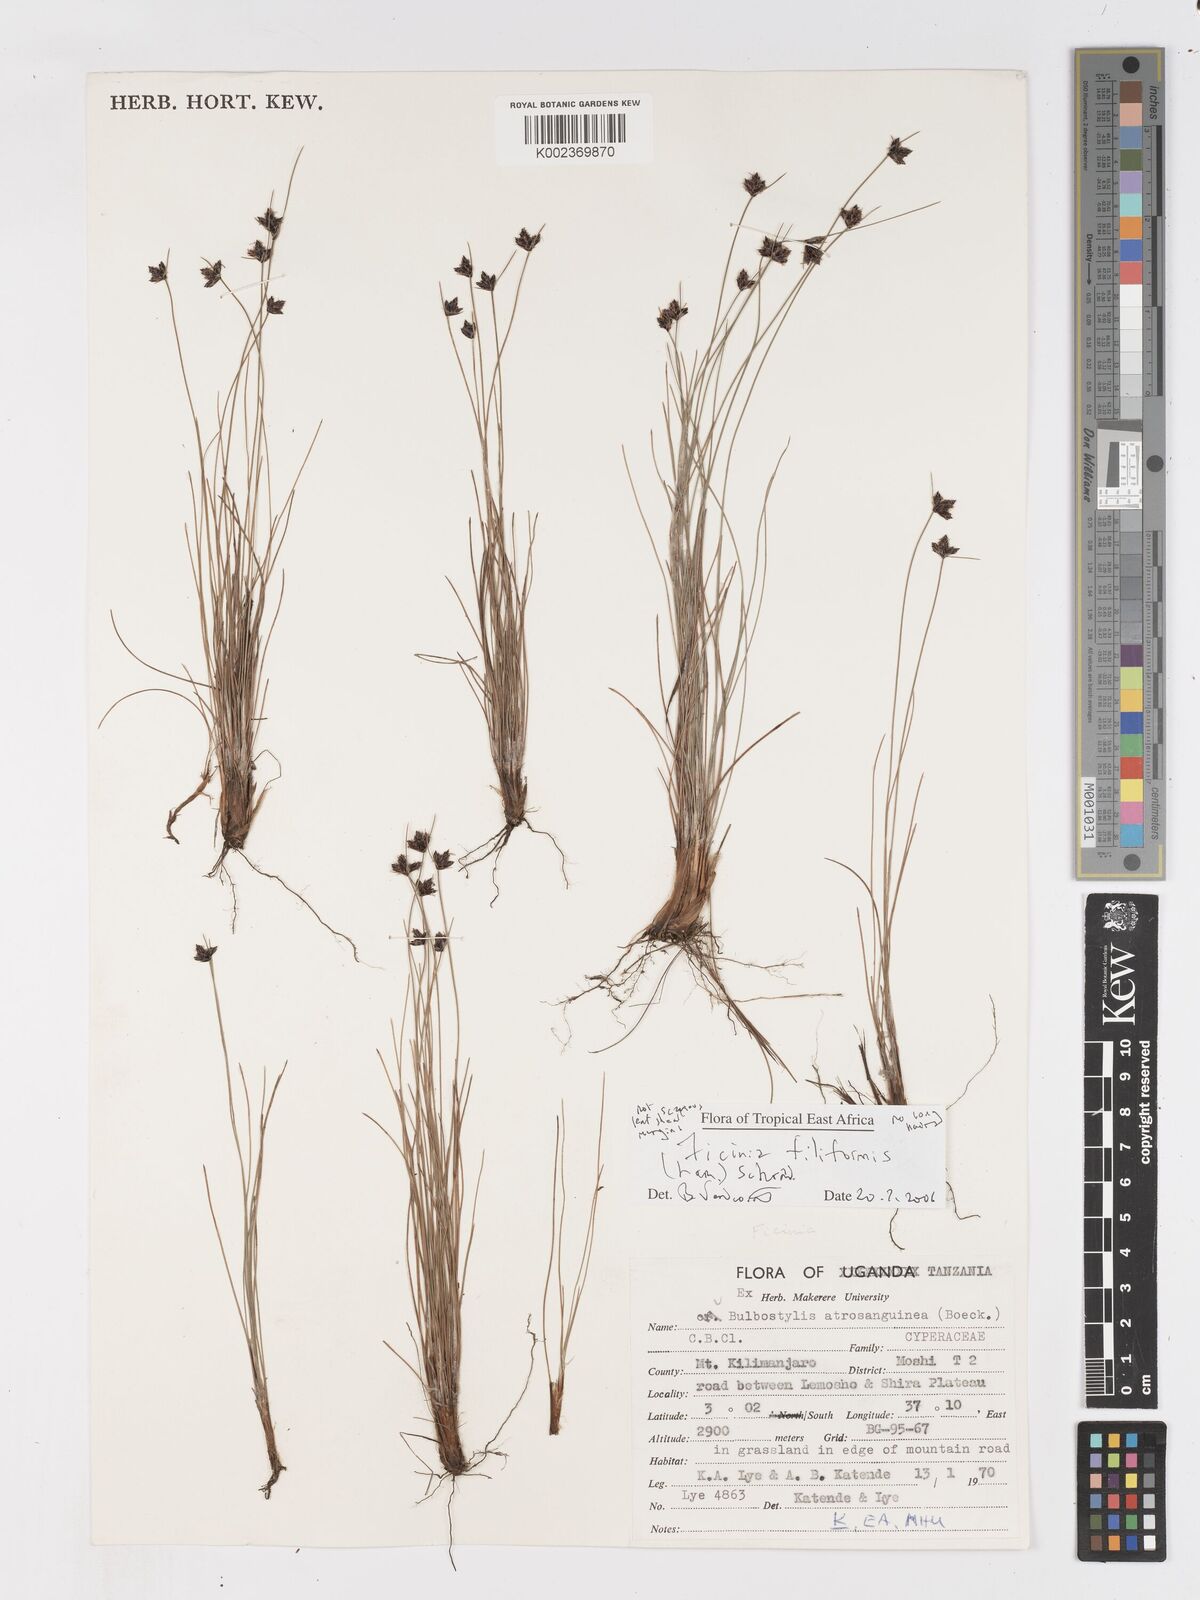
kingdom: Plantae
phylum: Tracheophyta
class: Liliopsida
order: Poales
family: Cyperaceae
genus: Ficinia
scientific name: Ficinia filiformis
